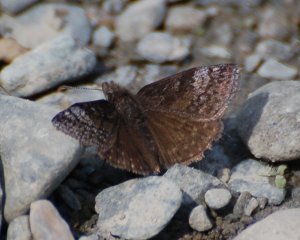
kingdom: Animalia
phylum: Arthropoda
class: Insecta
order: Lepidoptera
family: Hesperiidae
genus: Erynnis
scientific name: Erynnis icelus
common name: Dreamy Duskywing
